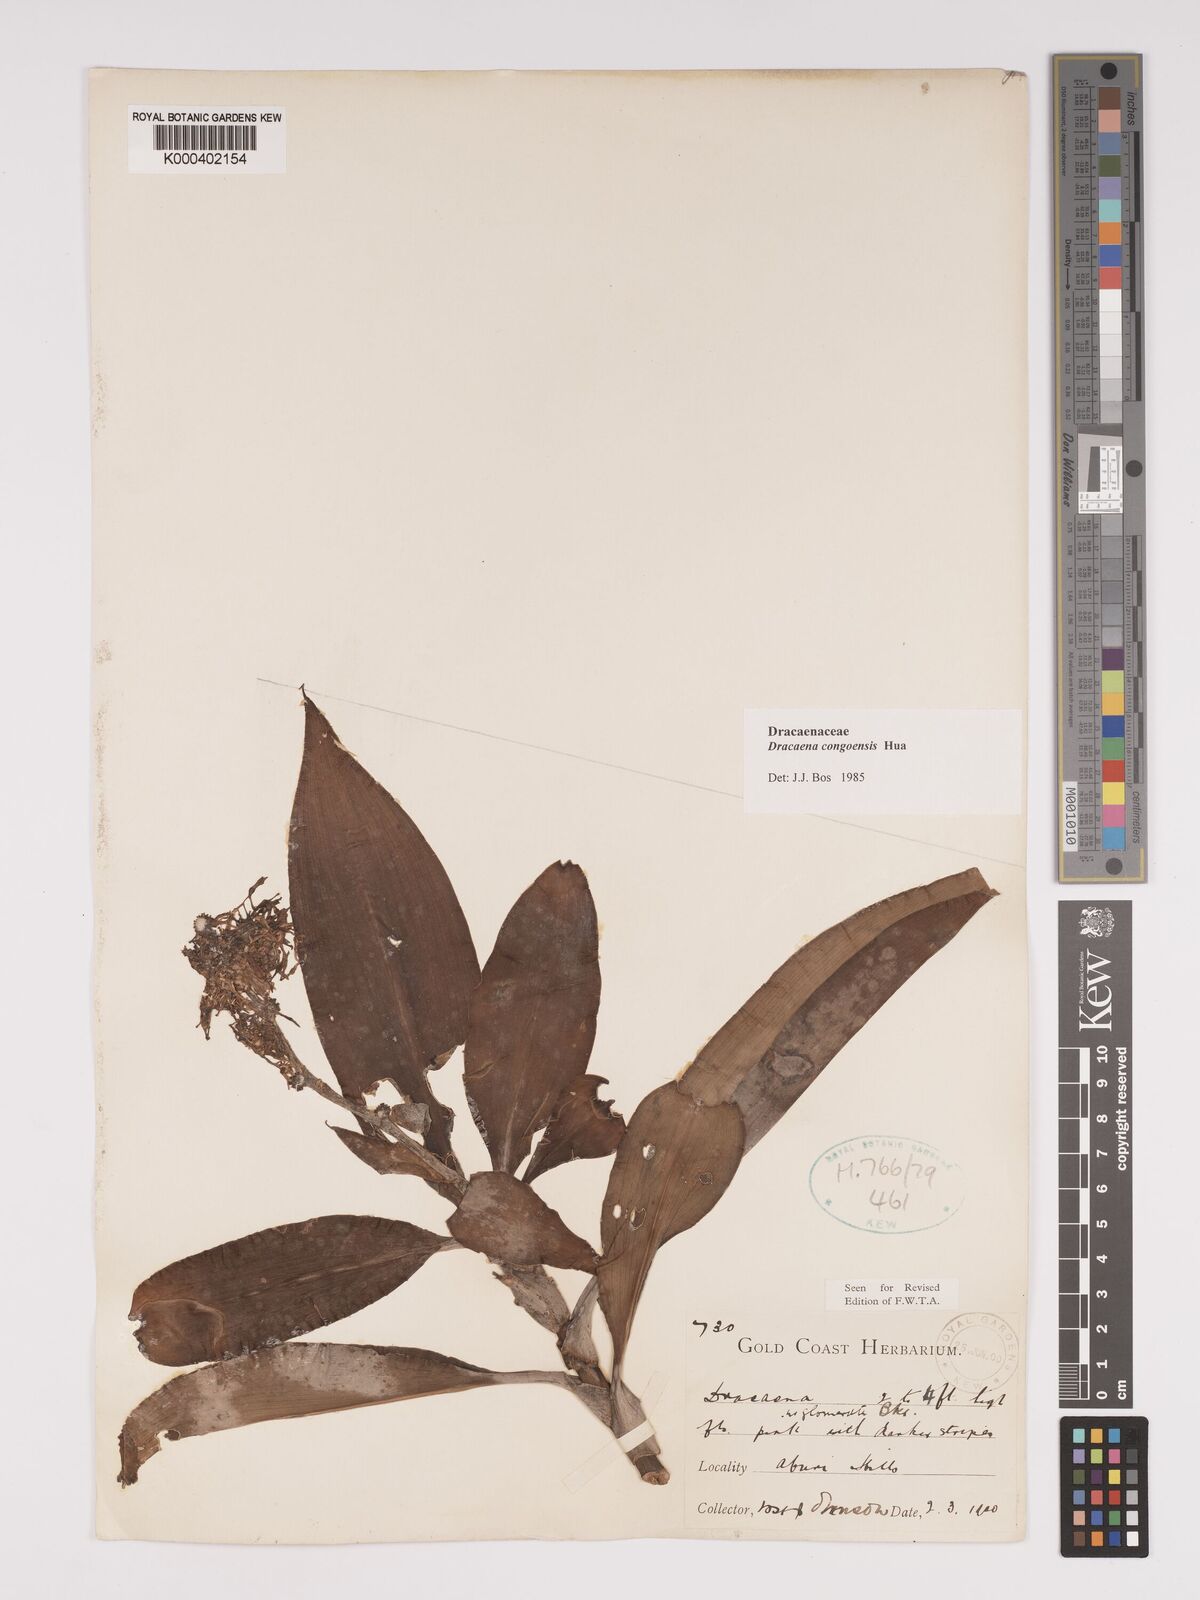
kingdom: Plantae
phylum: Tracheophyta
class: Liliopsida
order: Asparagales
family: Asparagaceae
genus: Dracaena
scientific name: Dracaena congoensis
